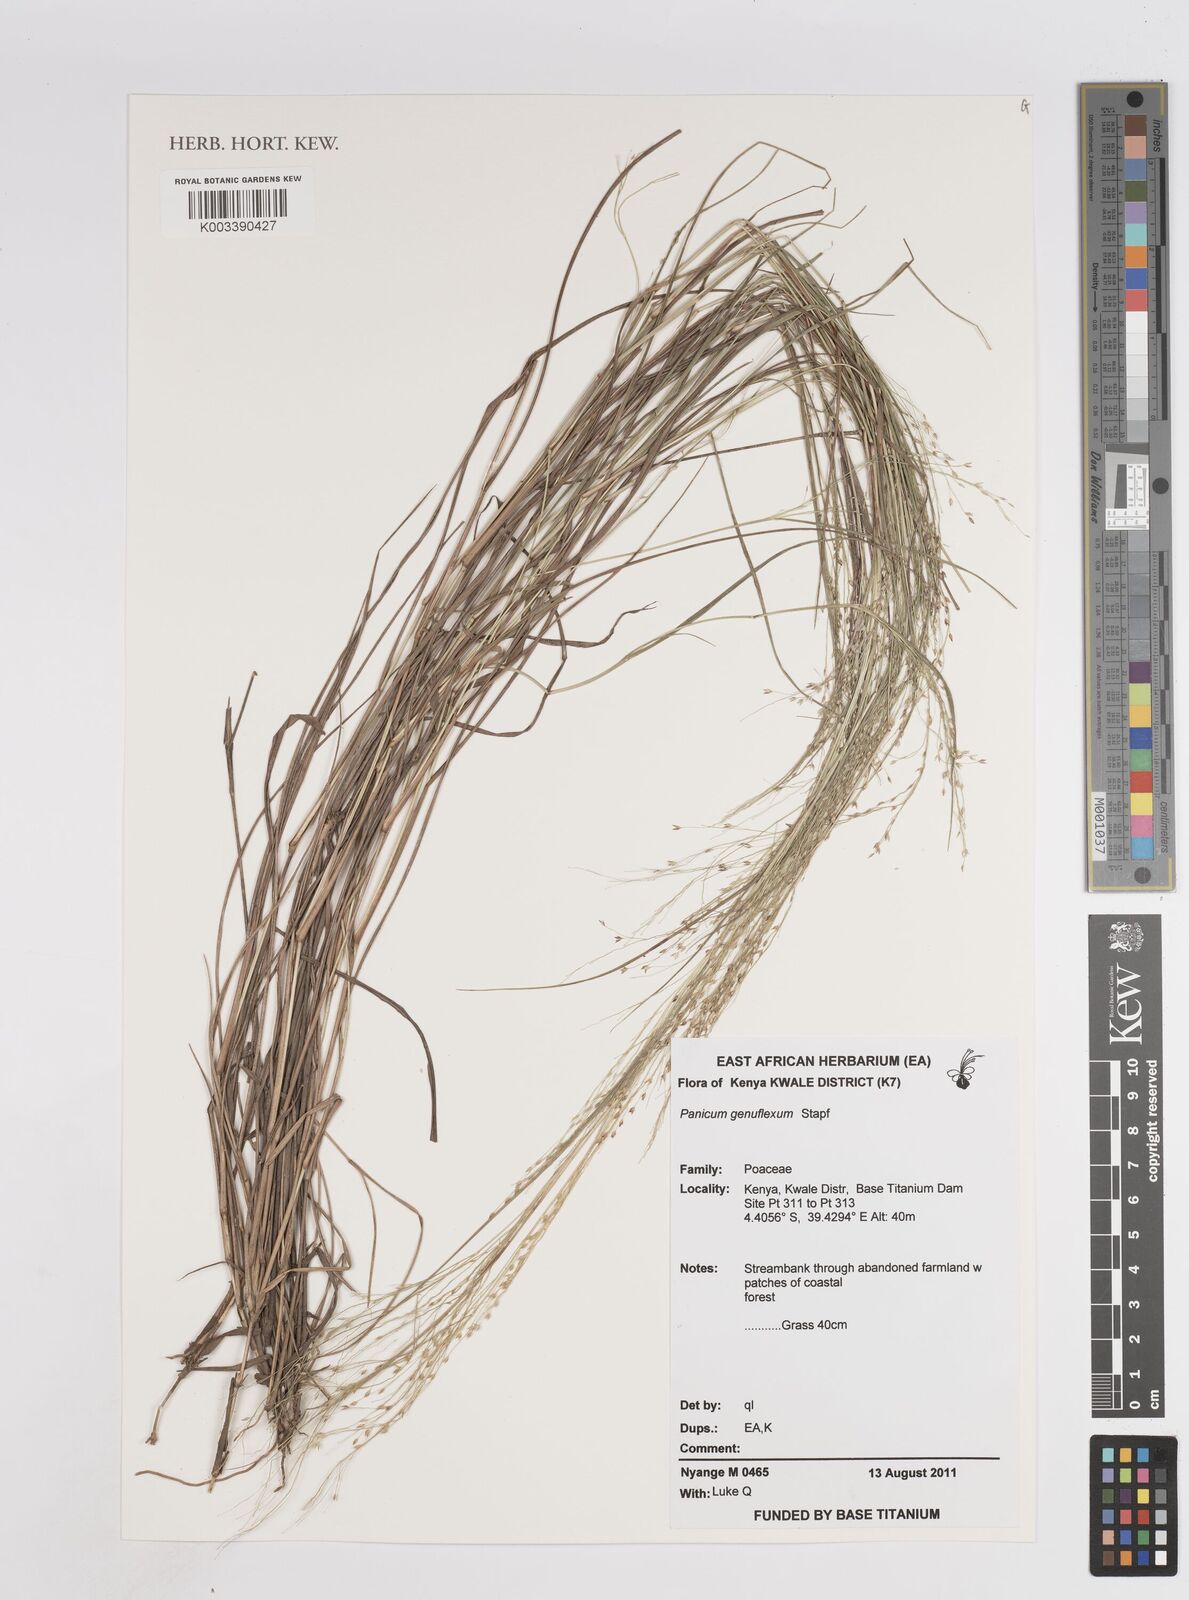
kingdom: Plantae
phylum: Tracheophyta
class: Liliopsida
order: Poales
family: Poaceae
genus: Panicum
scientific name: Panicum genuflexum
